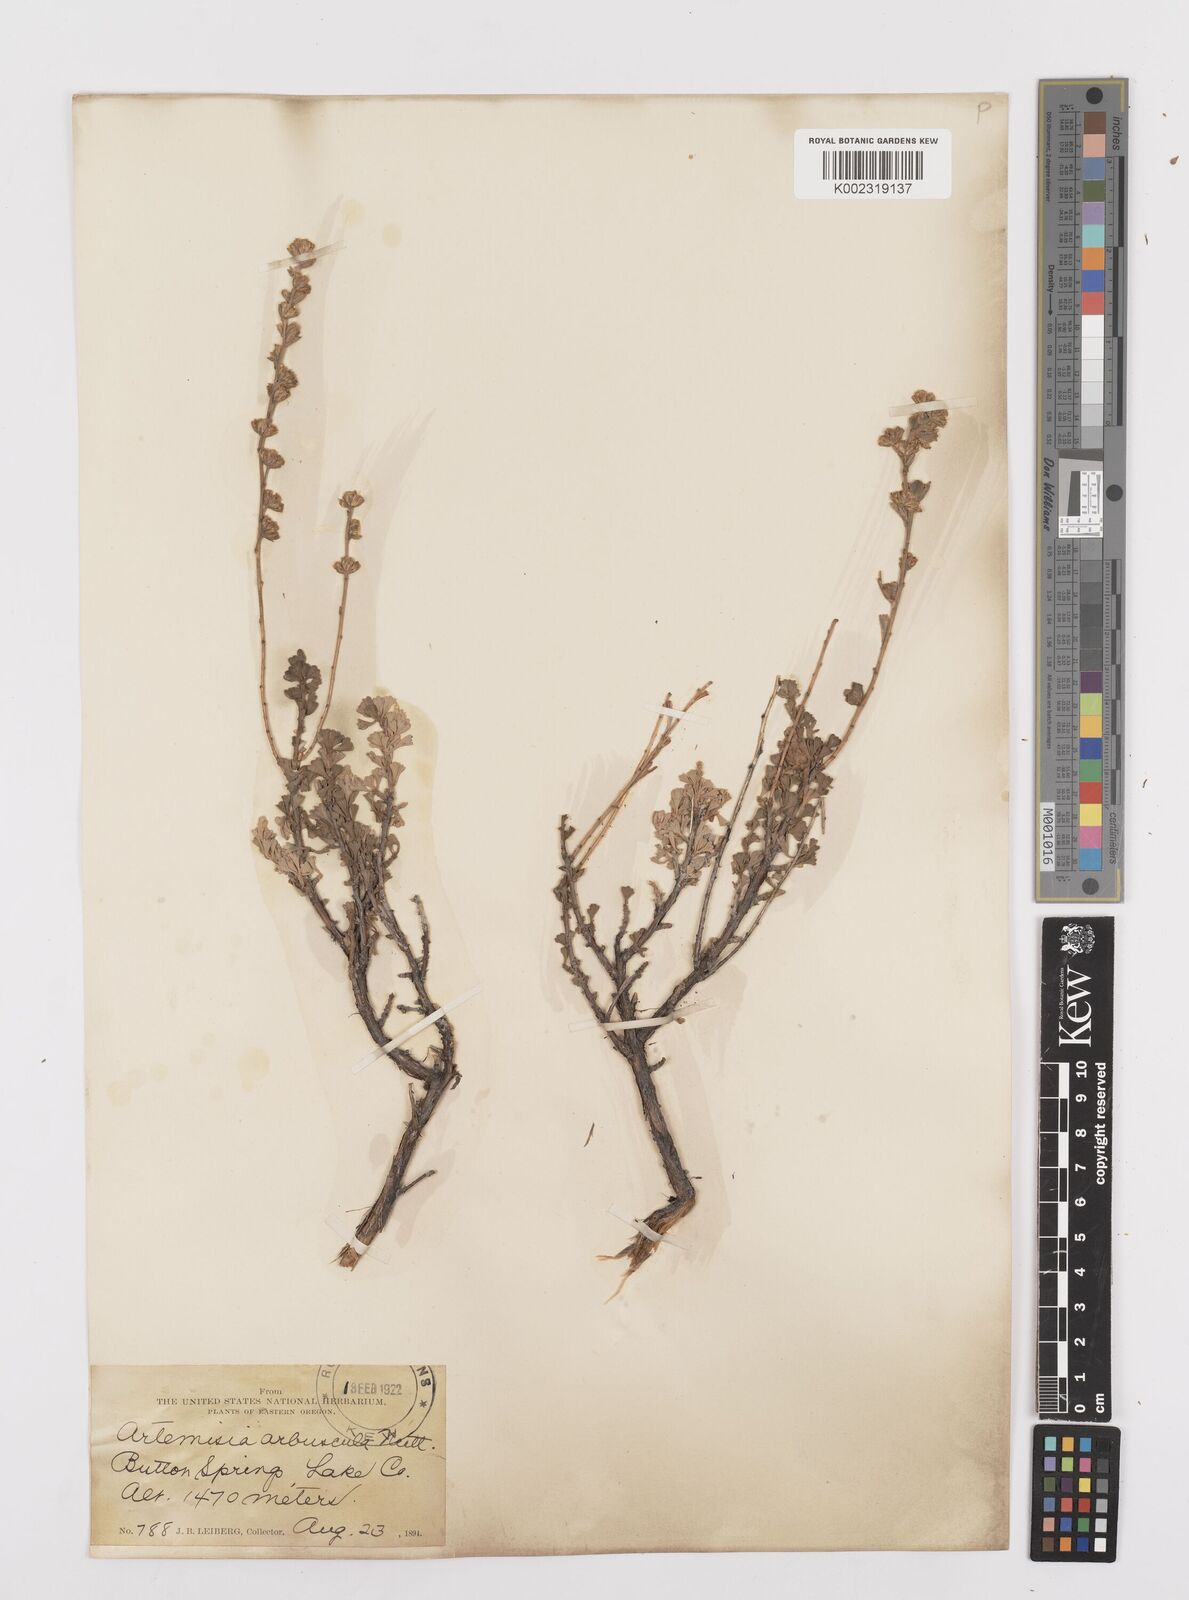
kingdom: Plantae
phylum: Tracheophyta
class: Magnoliopsida
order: Asterales
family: Asteraceae
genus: Artemisia
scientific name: Artemisia arbuscula
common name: Sagebrush
